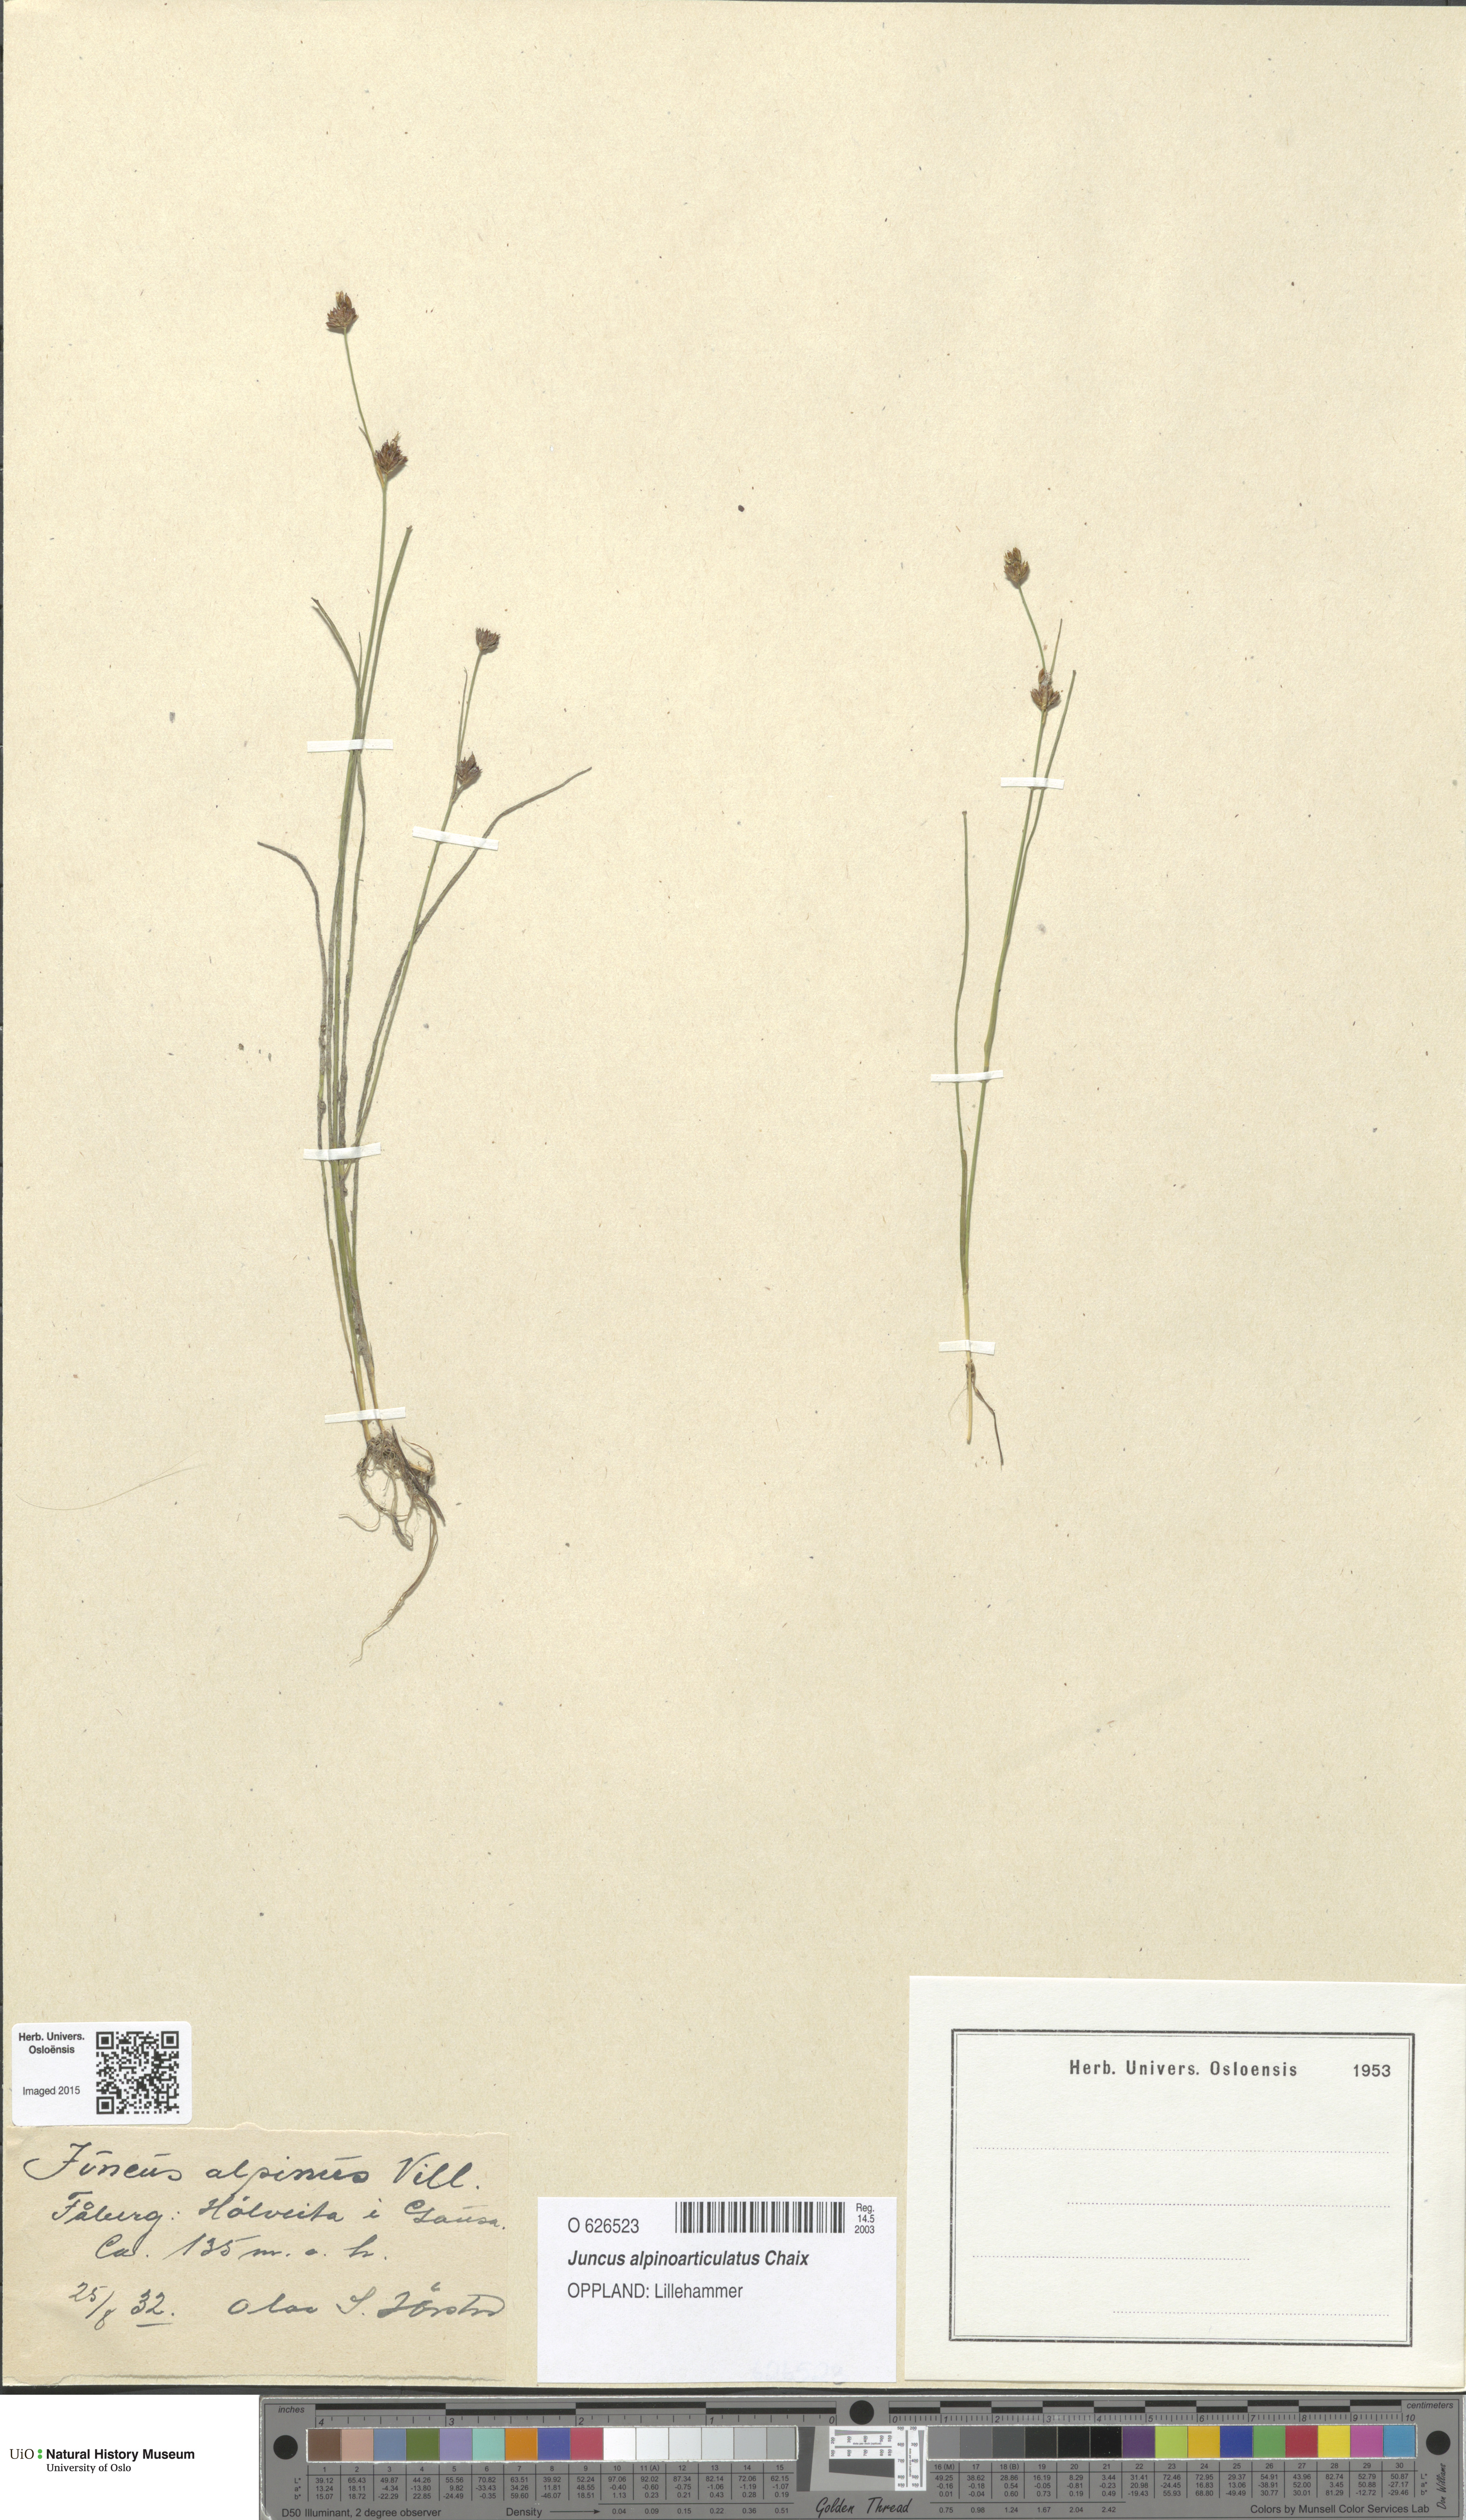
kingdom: Plantae
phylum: Tracheophyta
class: Liliopsida
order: Poales
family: Juncaceae
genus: Juncus
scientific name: Juncus alpinoarticulatus
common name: Alpine rush
